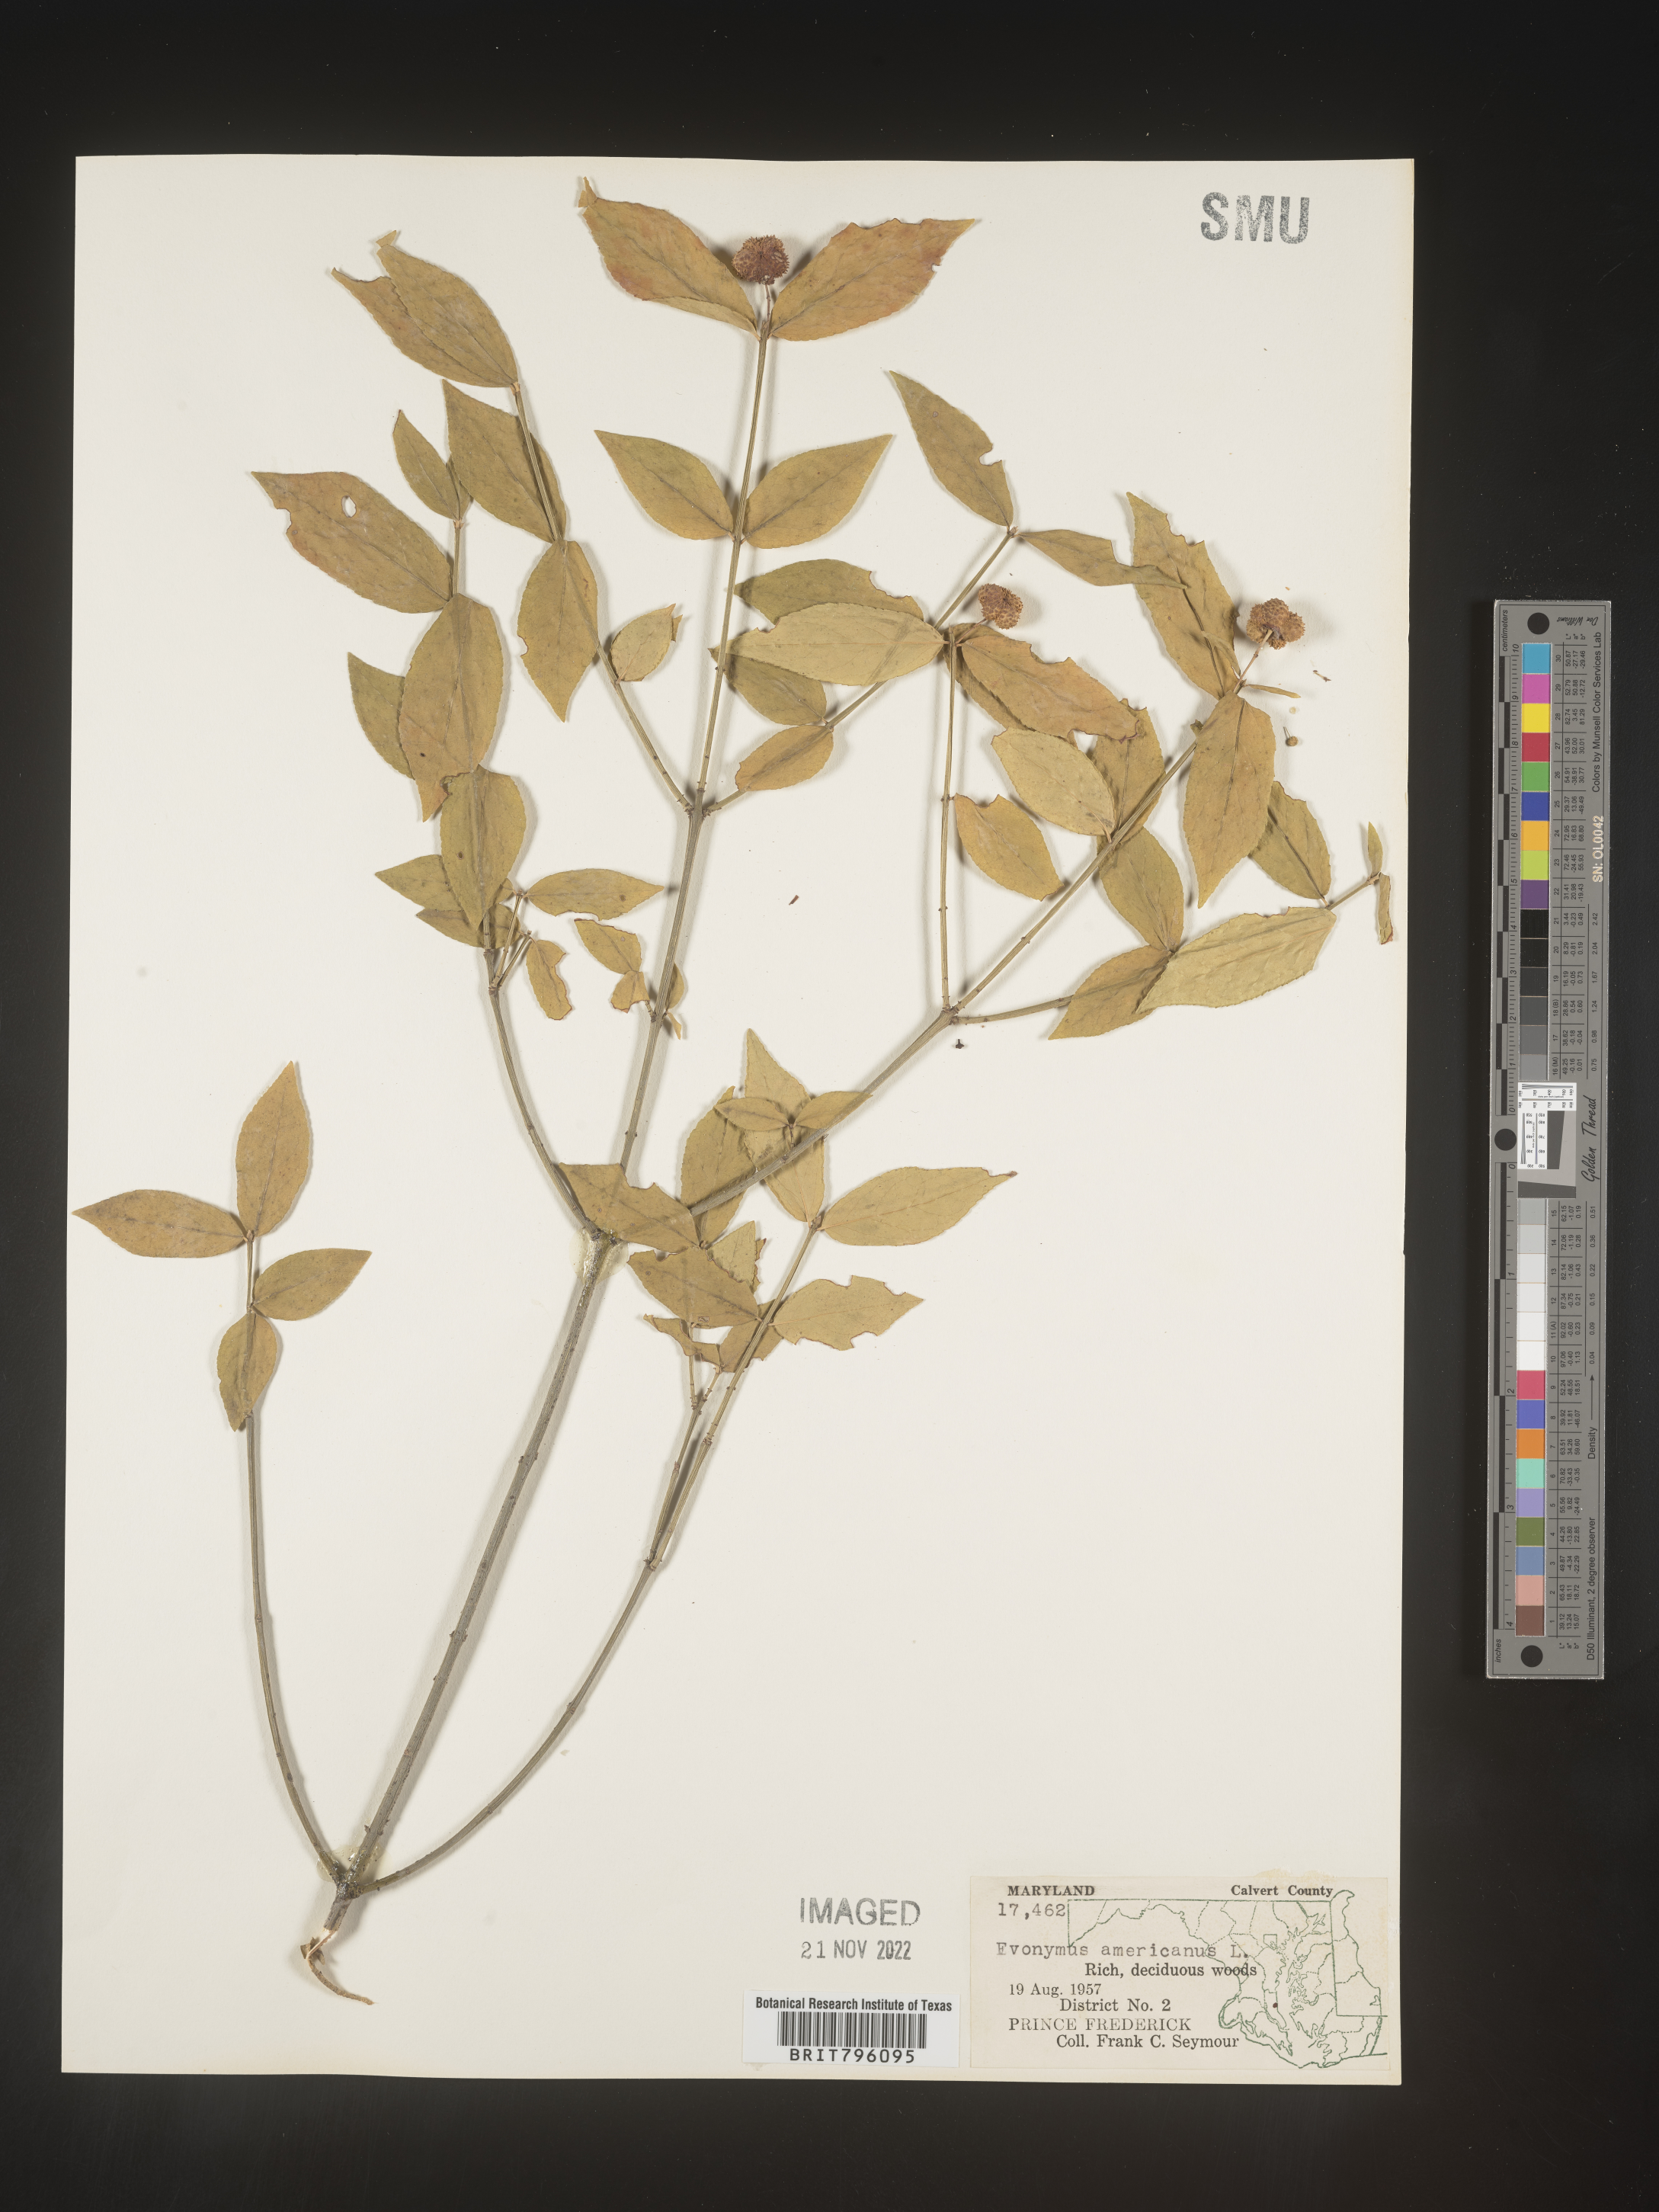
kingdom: Plantae
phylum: Tracheophyta
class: Magnoliopsida
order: Celastrales
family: Celastraceae
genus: Euonymus
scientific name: Euonymus americanus
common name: Bursting-heart
